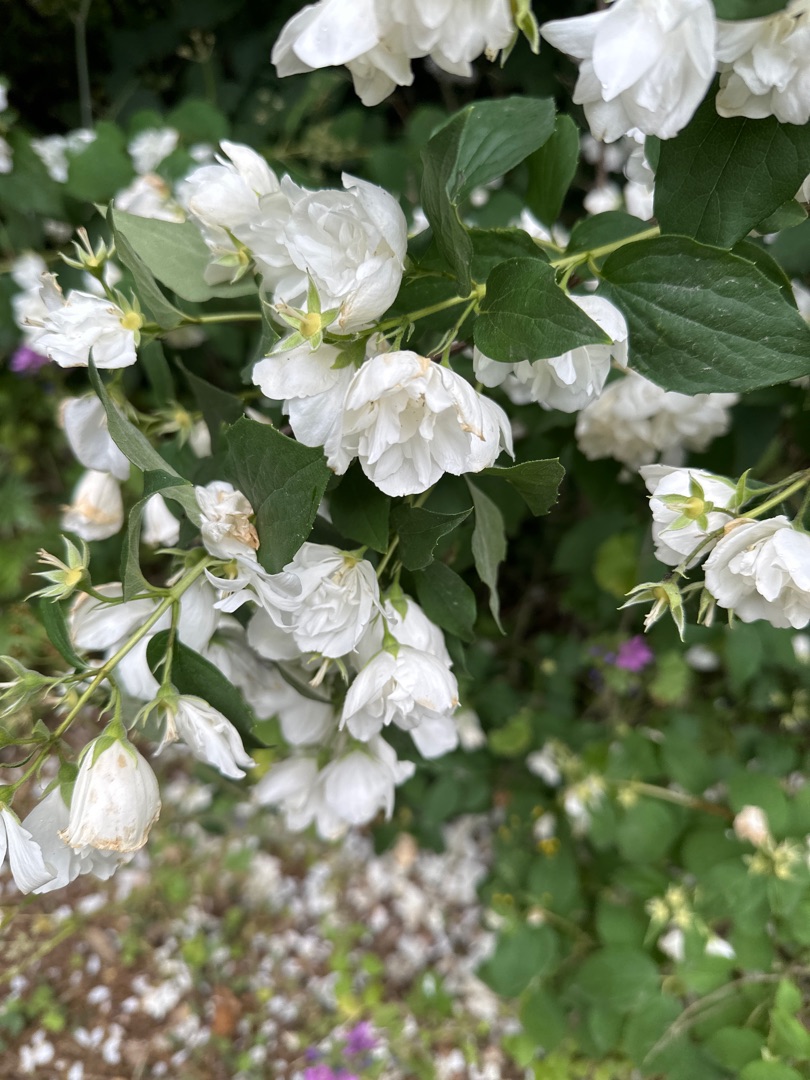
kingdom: Plantae
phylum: Tracheophyta
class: Magnoliopsida
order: Cornales
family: Hydrangeaceae
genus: Philadelphus
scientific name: Philadelphus virginalis
